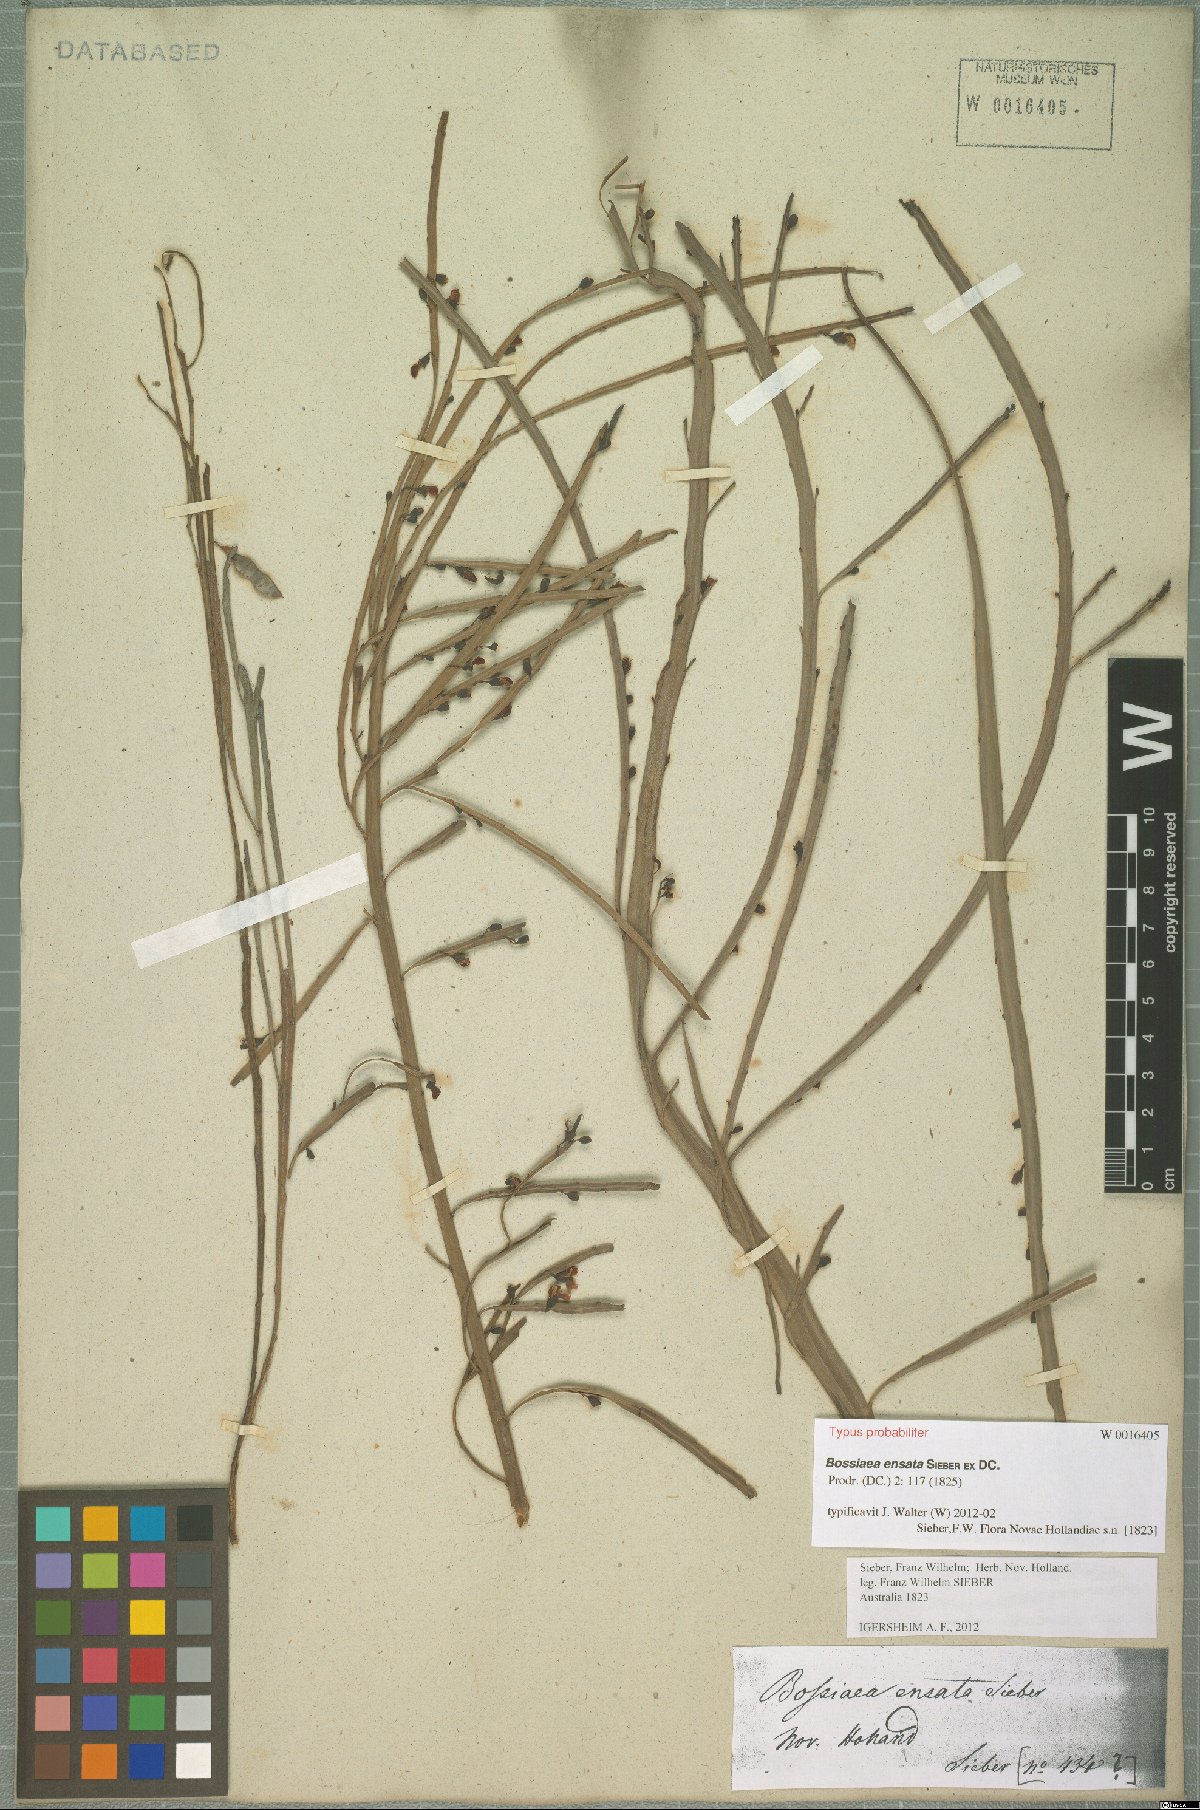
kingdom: Plantae
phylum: Tracheophyta
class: Magnoliopsida
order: Fabales
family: Fabaceae
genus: Bossiaea
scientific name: Bossiaea ensata
